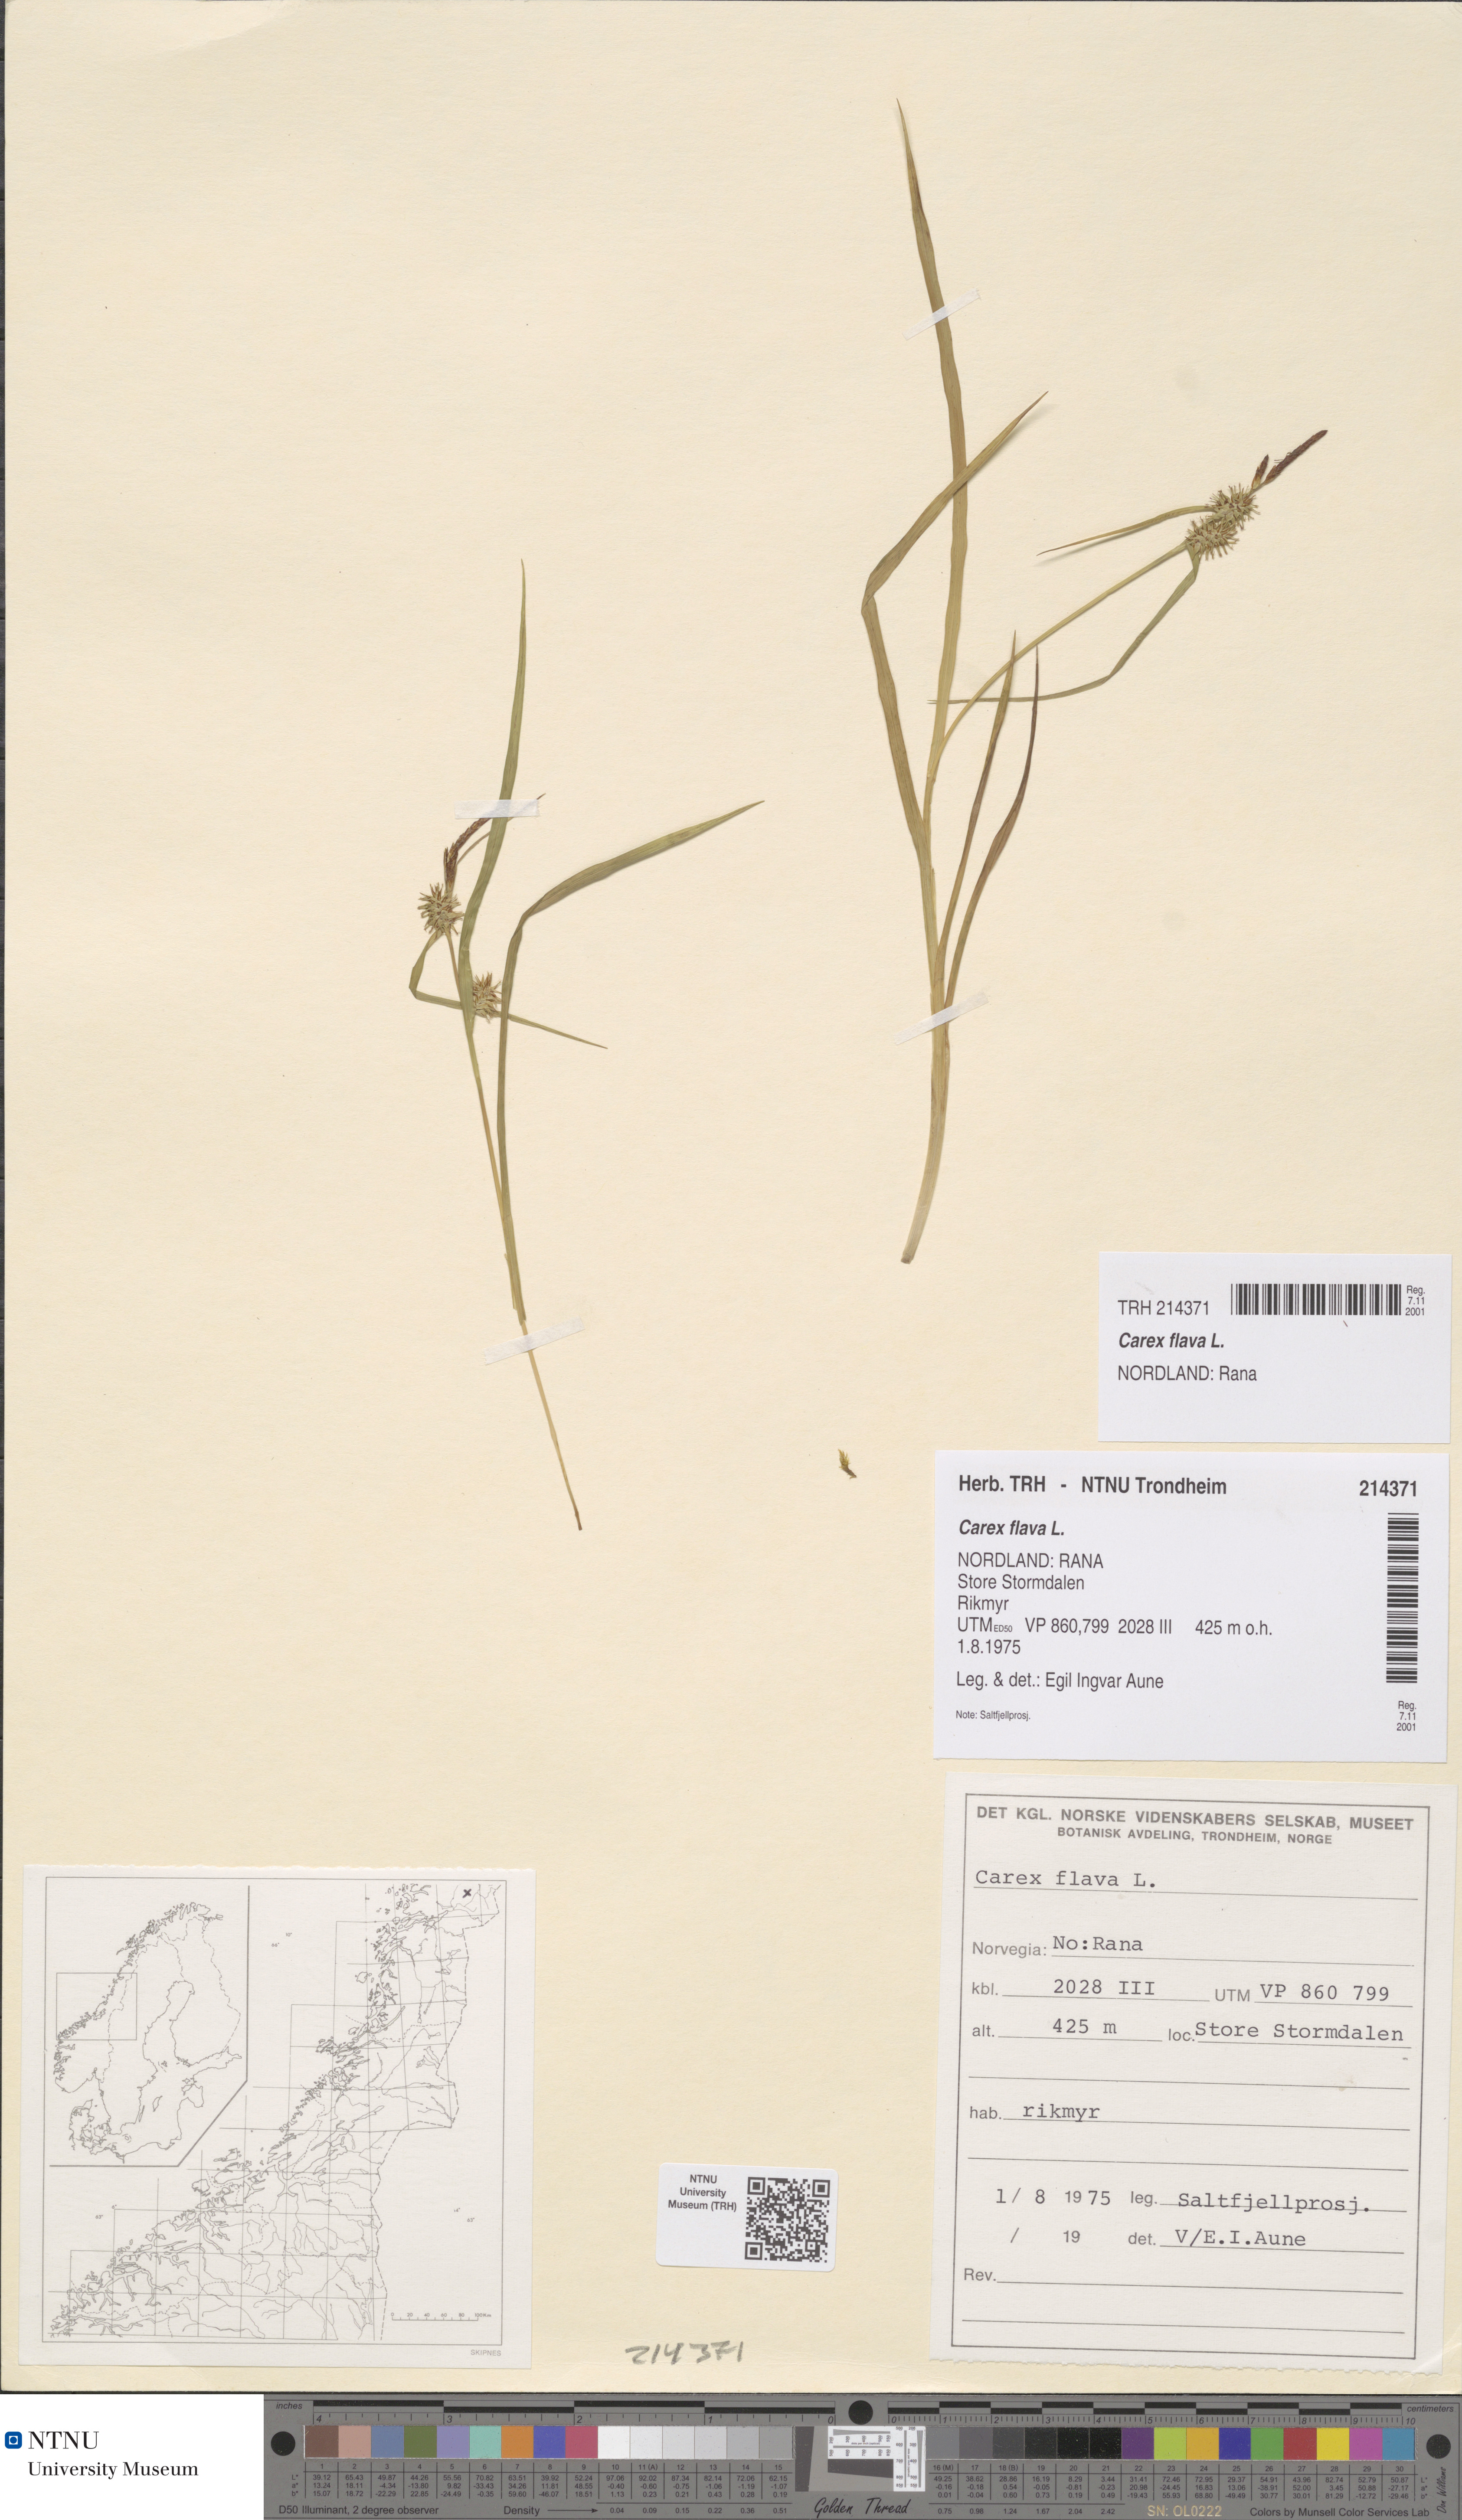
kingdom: Plantae
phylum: Tracheophyta
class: Liliopsida
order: Poales
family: Cyperaceae
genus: Carex
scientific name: Carex flava
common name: Large yellow-sedge
